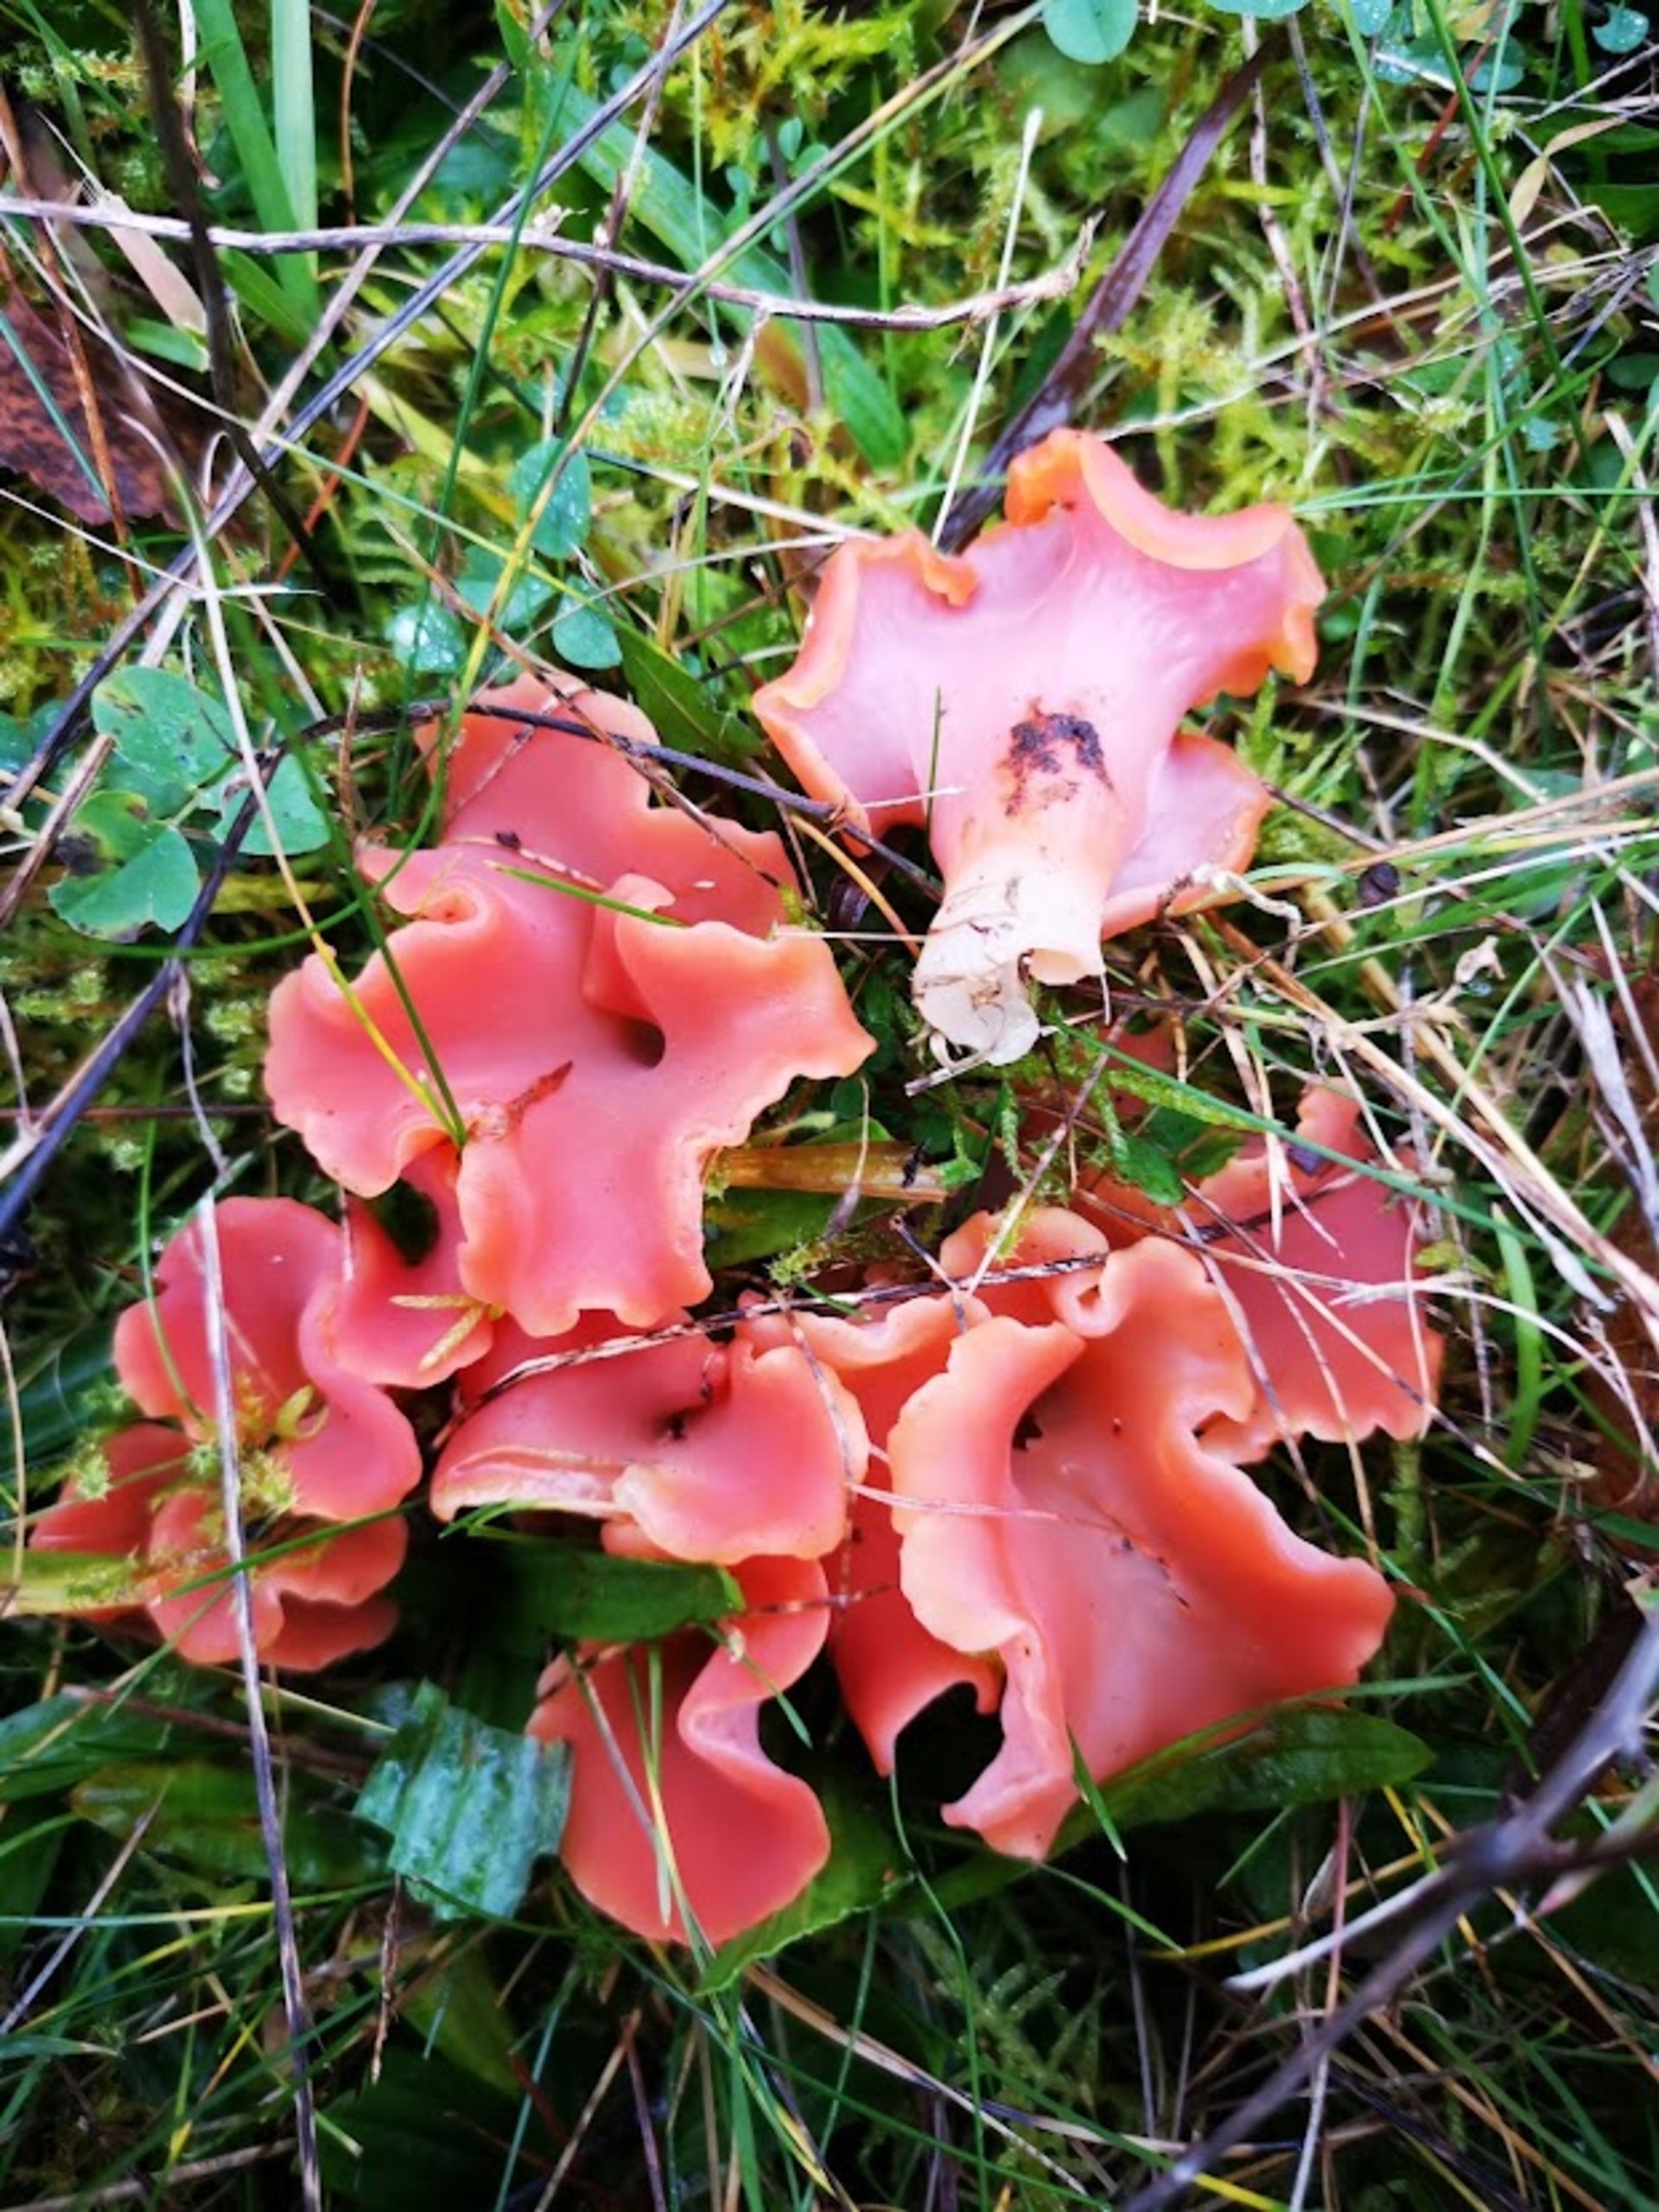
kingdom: Fungi
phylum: Basidiomycota
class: Agaricomycetes
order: Auriculariales
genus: Guepinia
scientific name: Guepinia helvelloides
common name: Bævretunge
